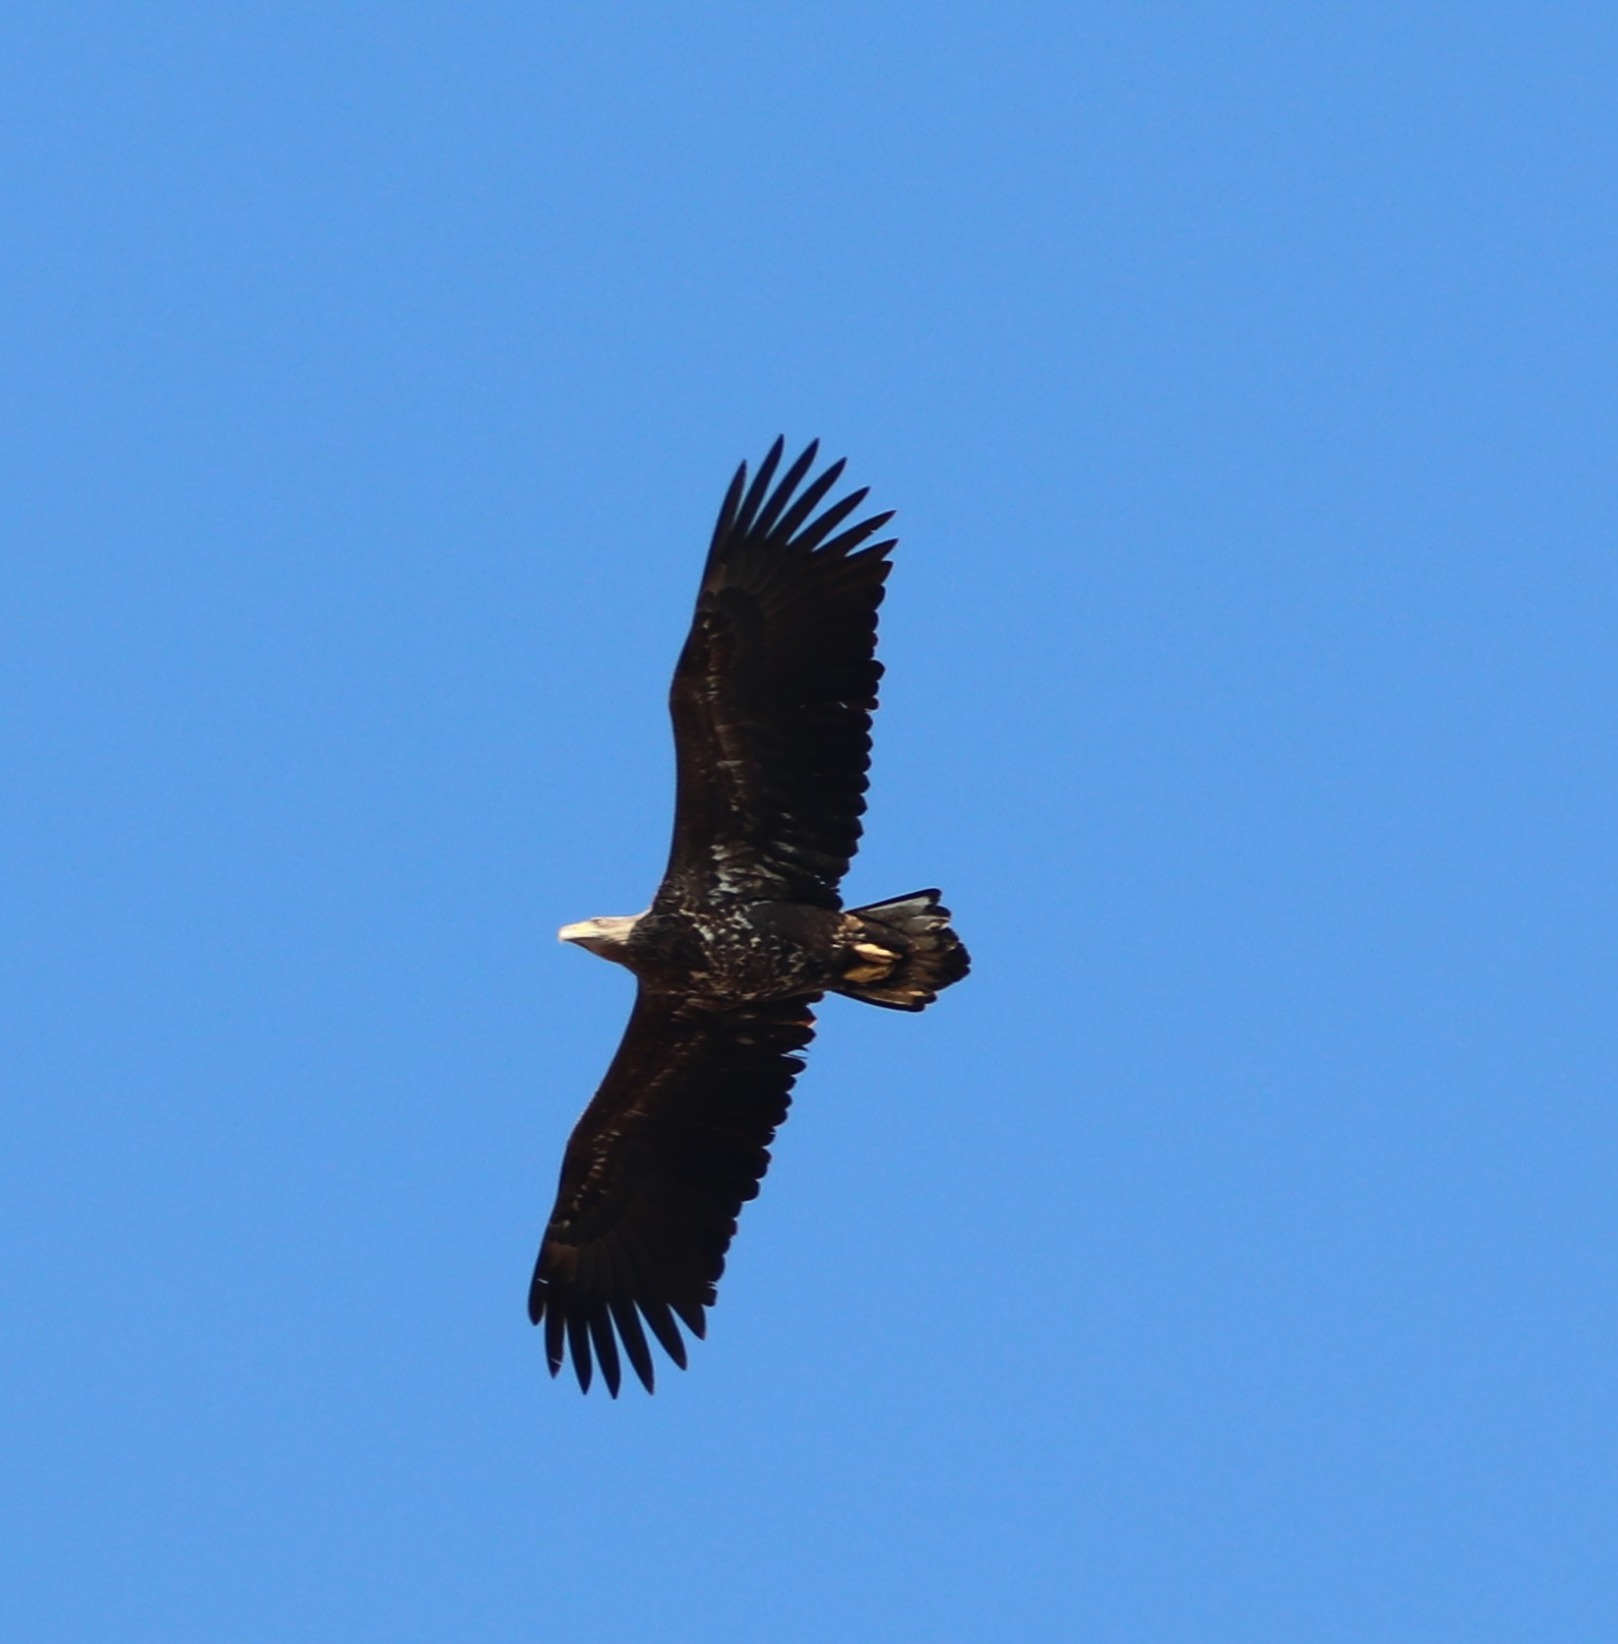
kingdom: Animalia
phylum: Chordata
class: Aves
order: Accipitriformes
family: Accipitridae
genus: Haliaeetus
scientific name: Haliaeetus albicilla
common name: Havørn
